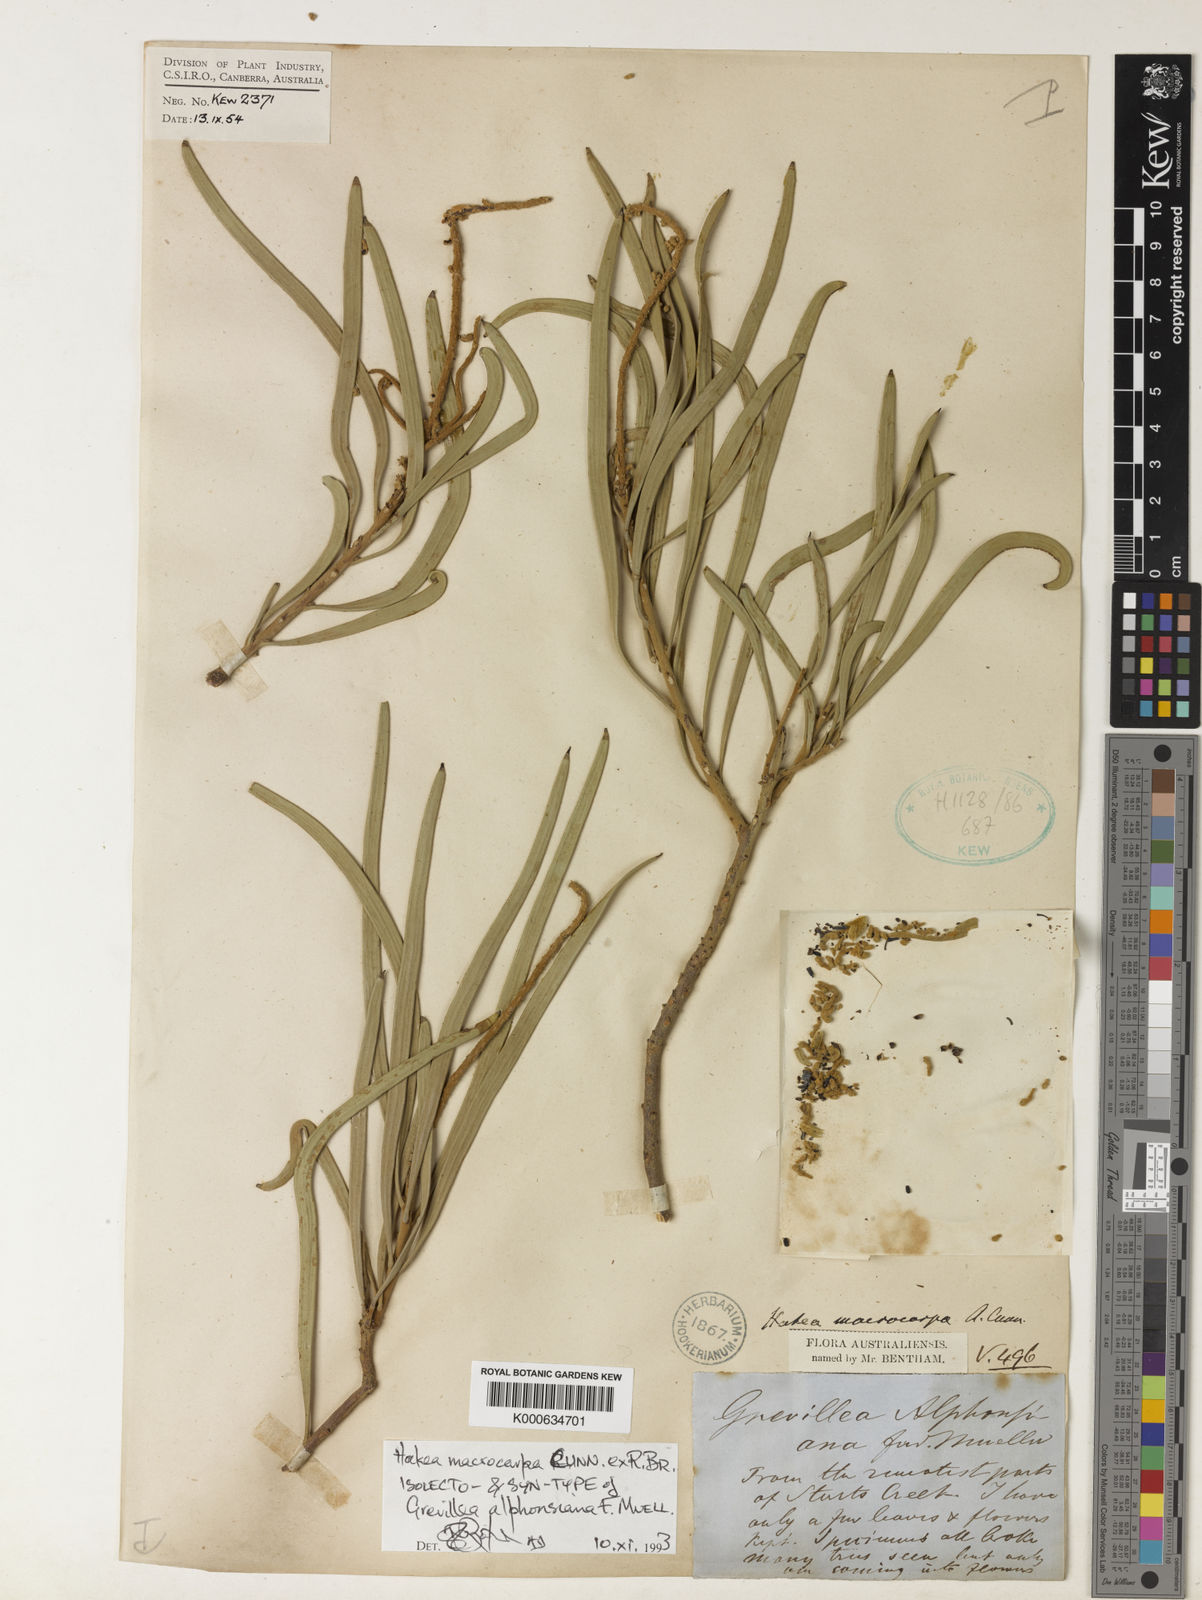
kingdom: Plantae
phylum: Tracheophyta
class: Magnoliopsida
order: Proteales
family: Proteaceae
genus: Hakea
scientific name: Hakea macrocarpa
